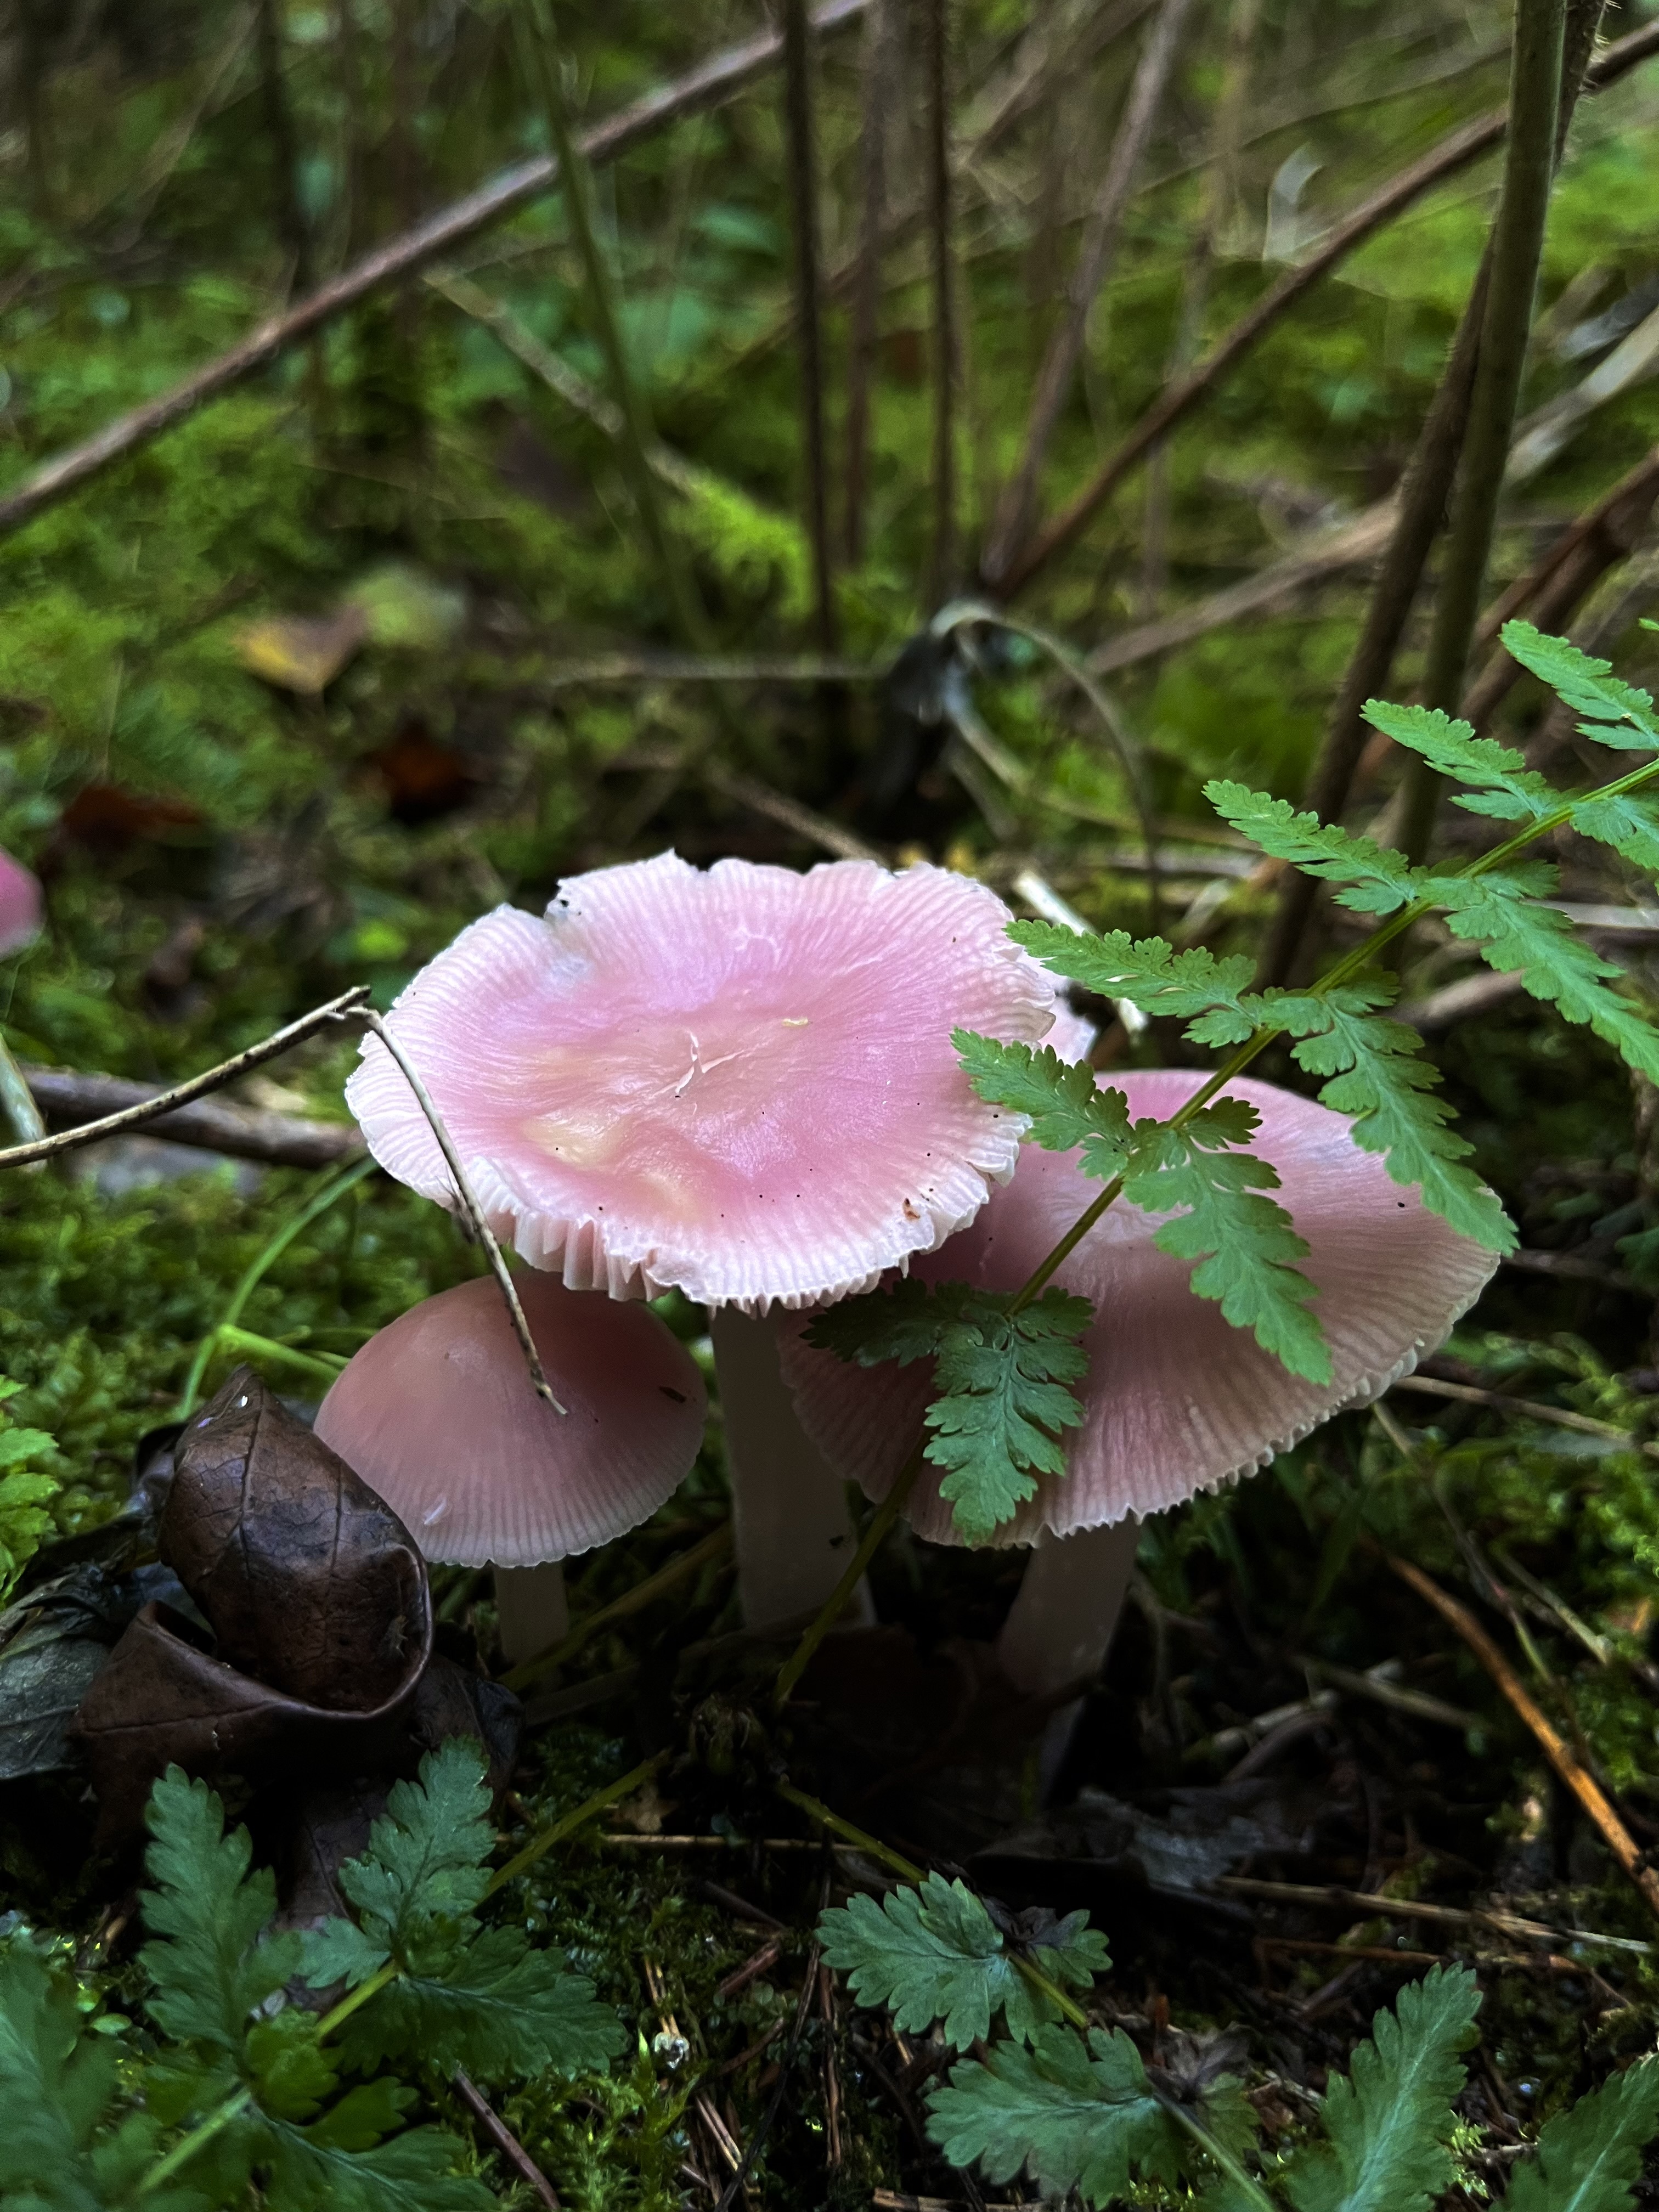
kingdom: Fungi
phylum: Basidiomycota
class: Agaricomycetes
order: Agaricales
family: Mycenaceae
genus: Mycena
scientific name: Mycena rosea
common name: Rosy bonnet
